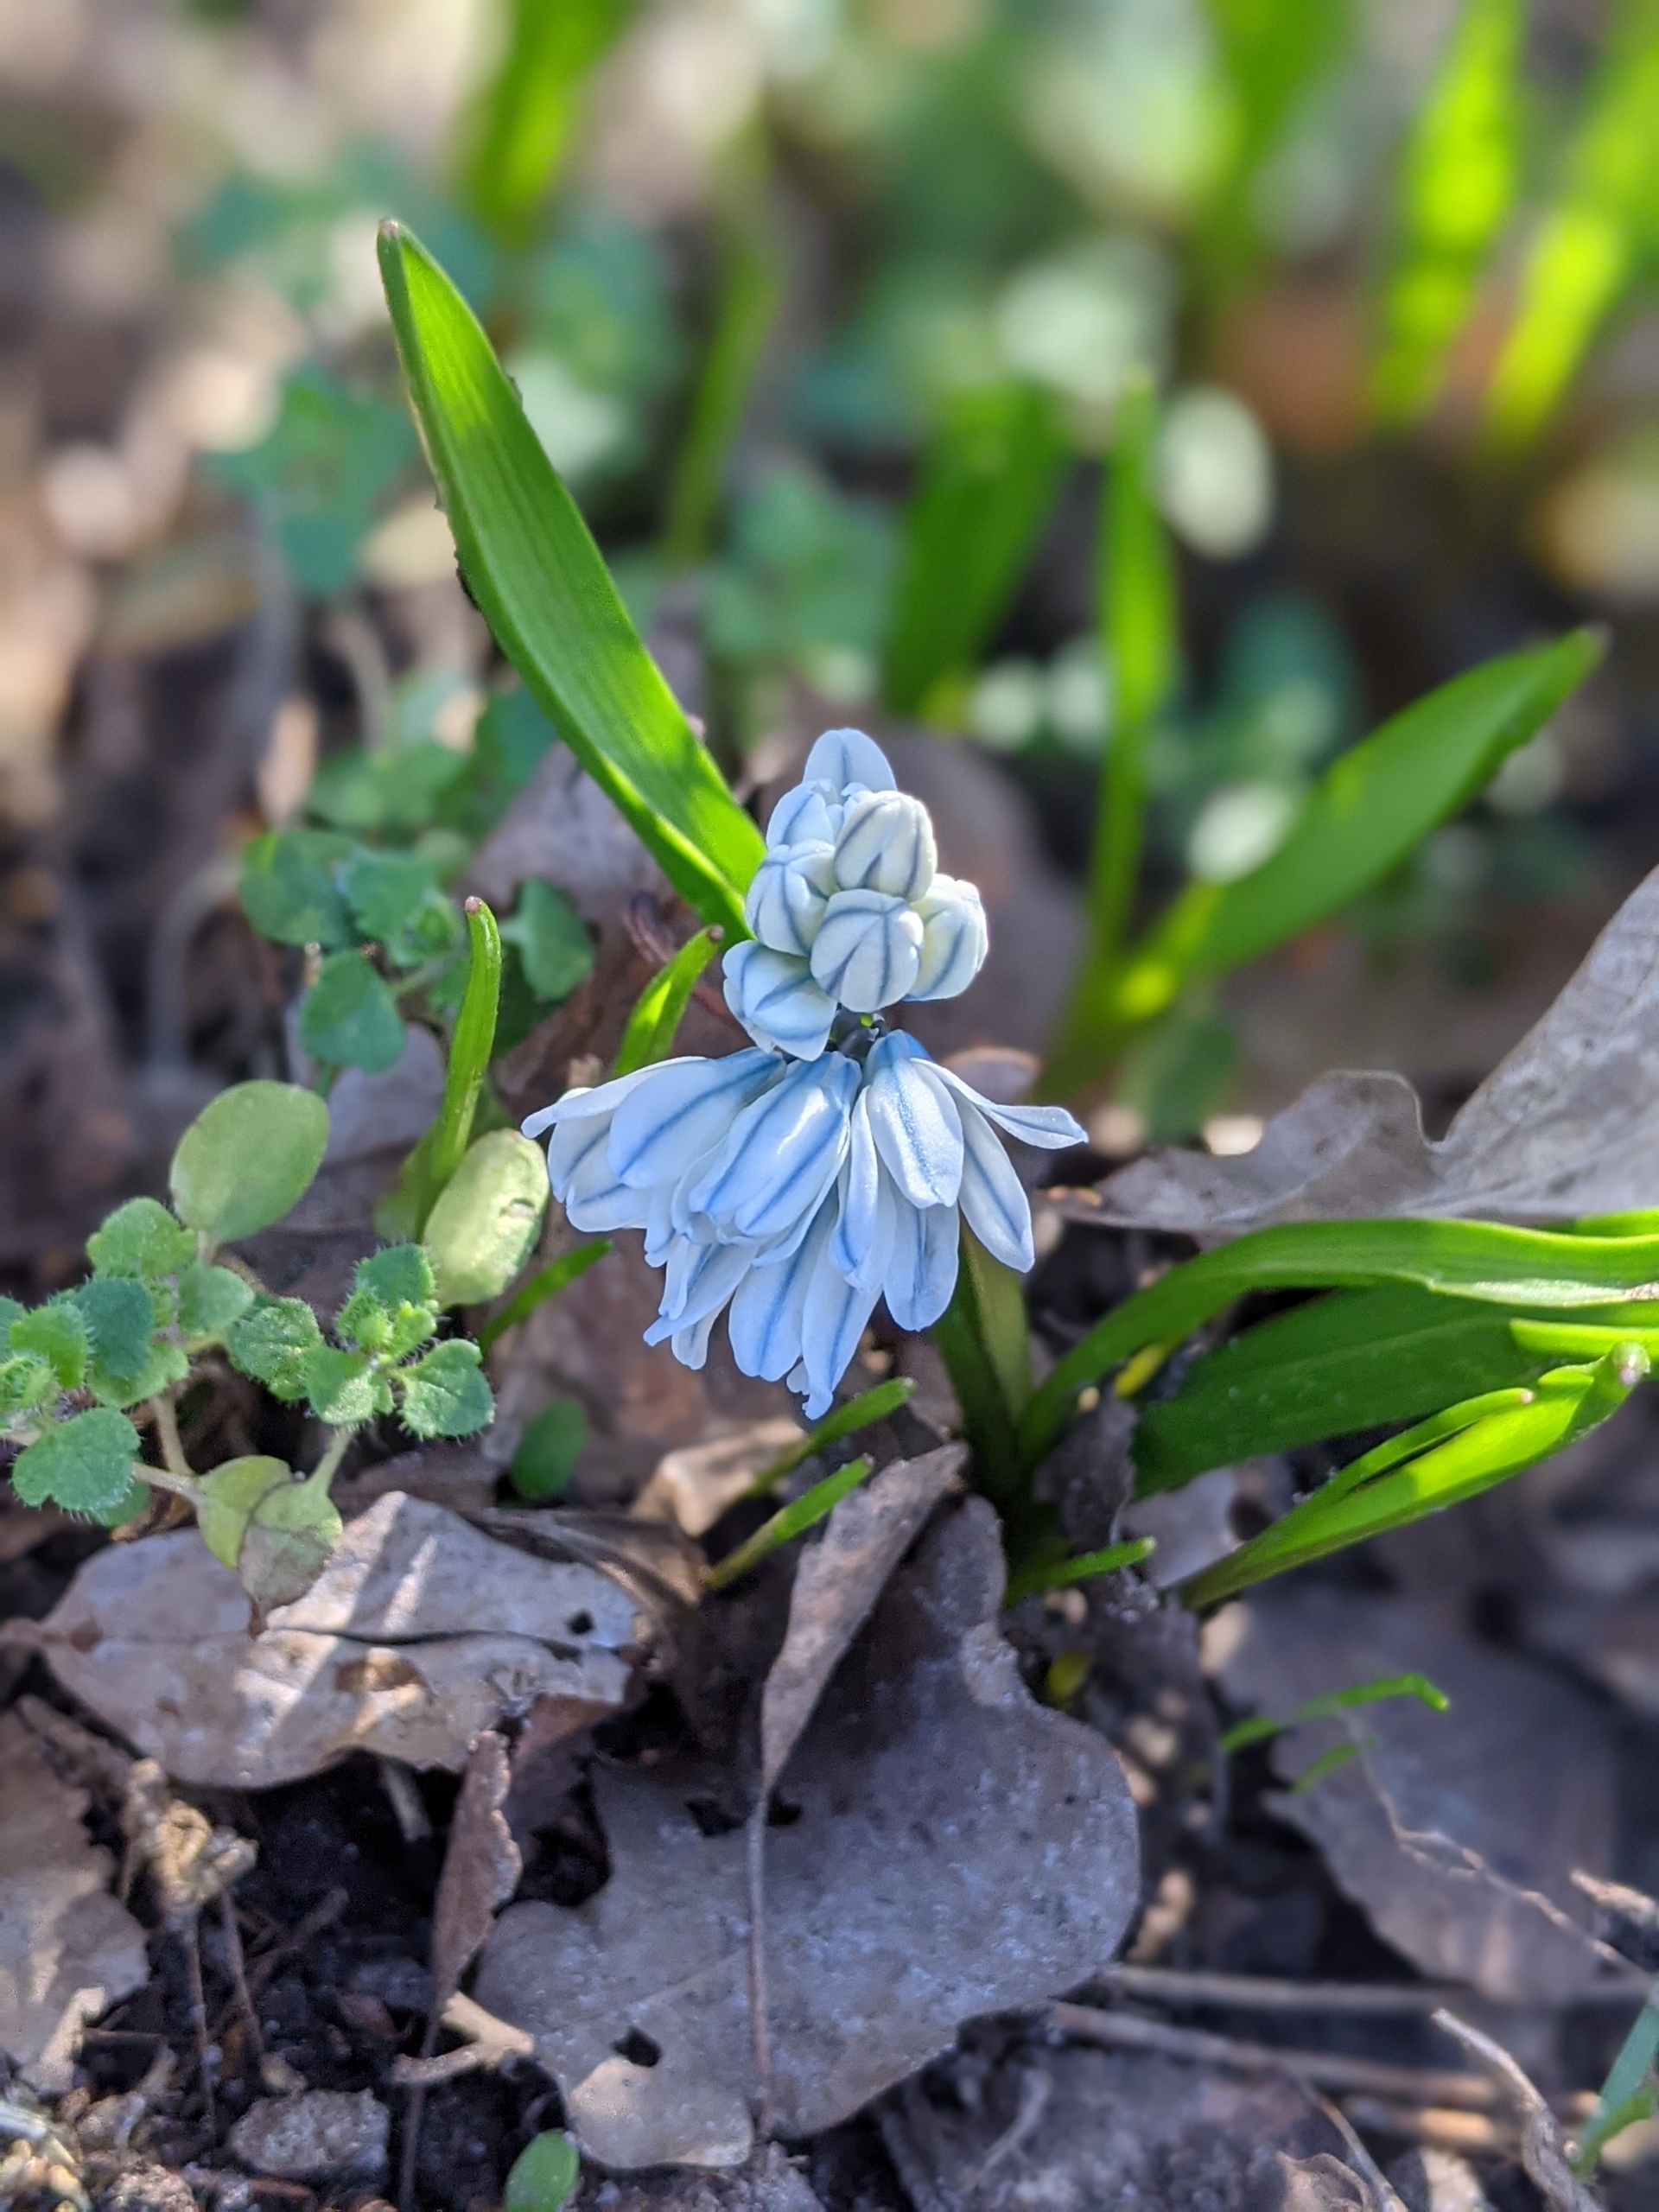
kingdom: Plantae
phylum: Tracheophyta
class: Liliopsida
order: Asparagales
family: Asparagaceae
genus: Puschkinia
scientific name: Puschkinia scilloides
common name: Porcelænshyacint
